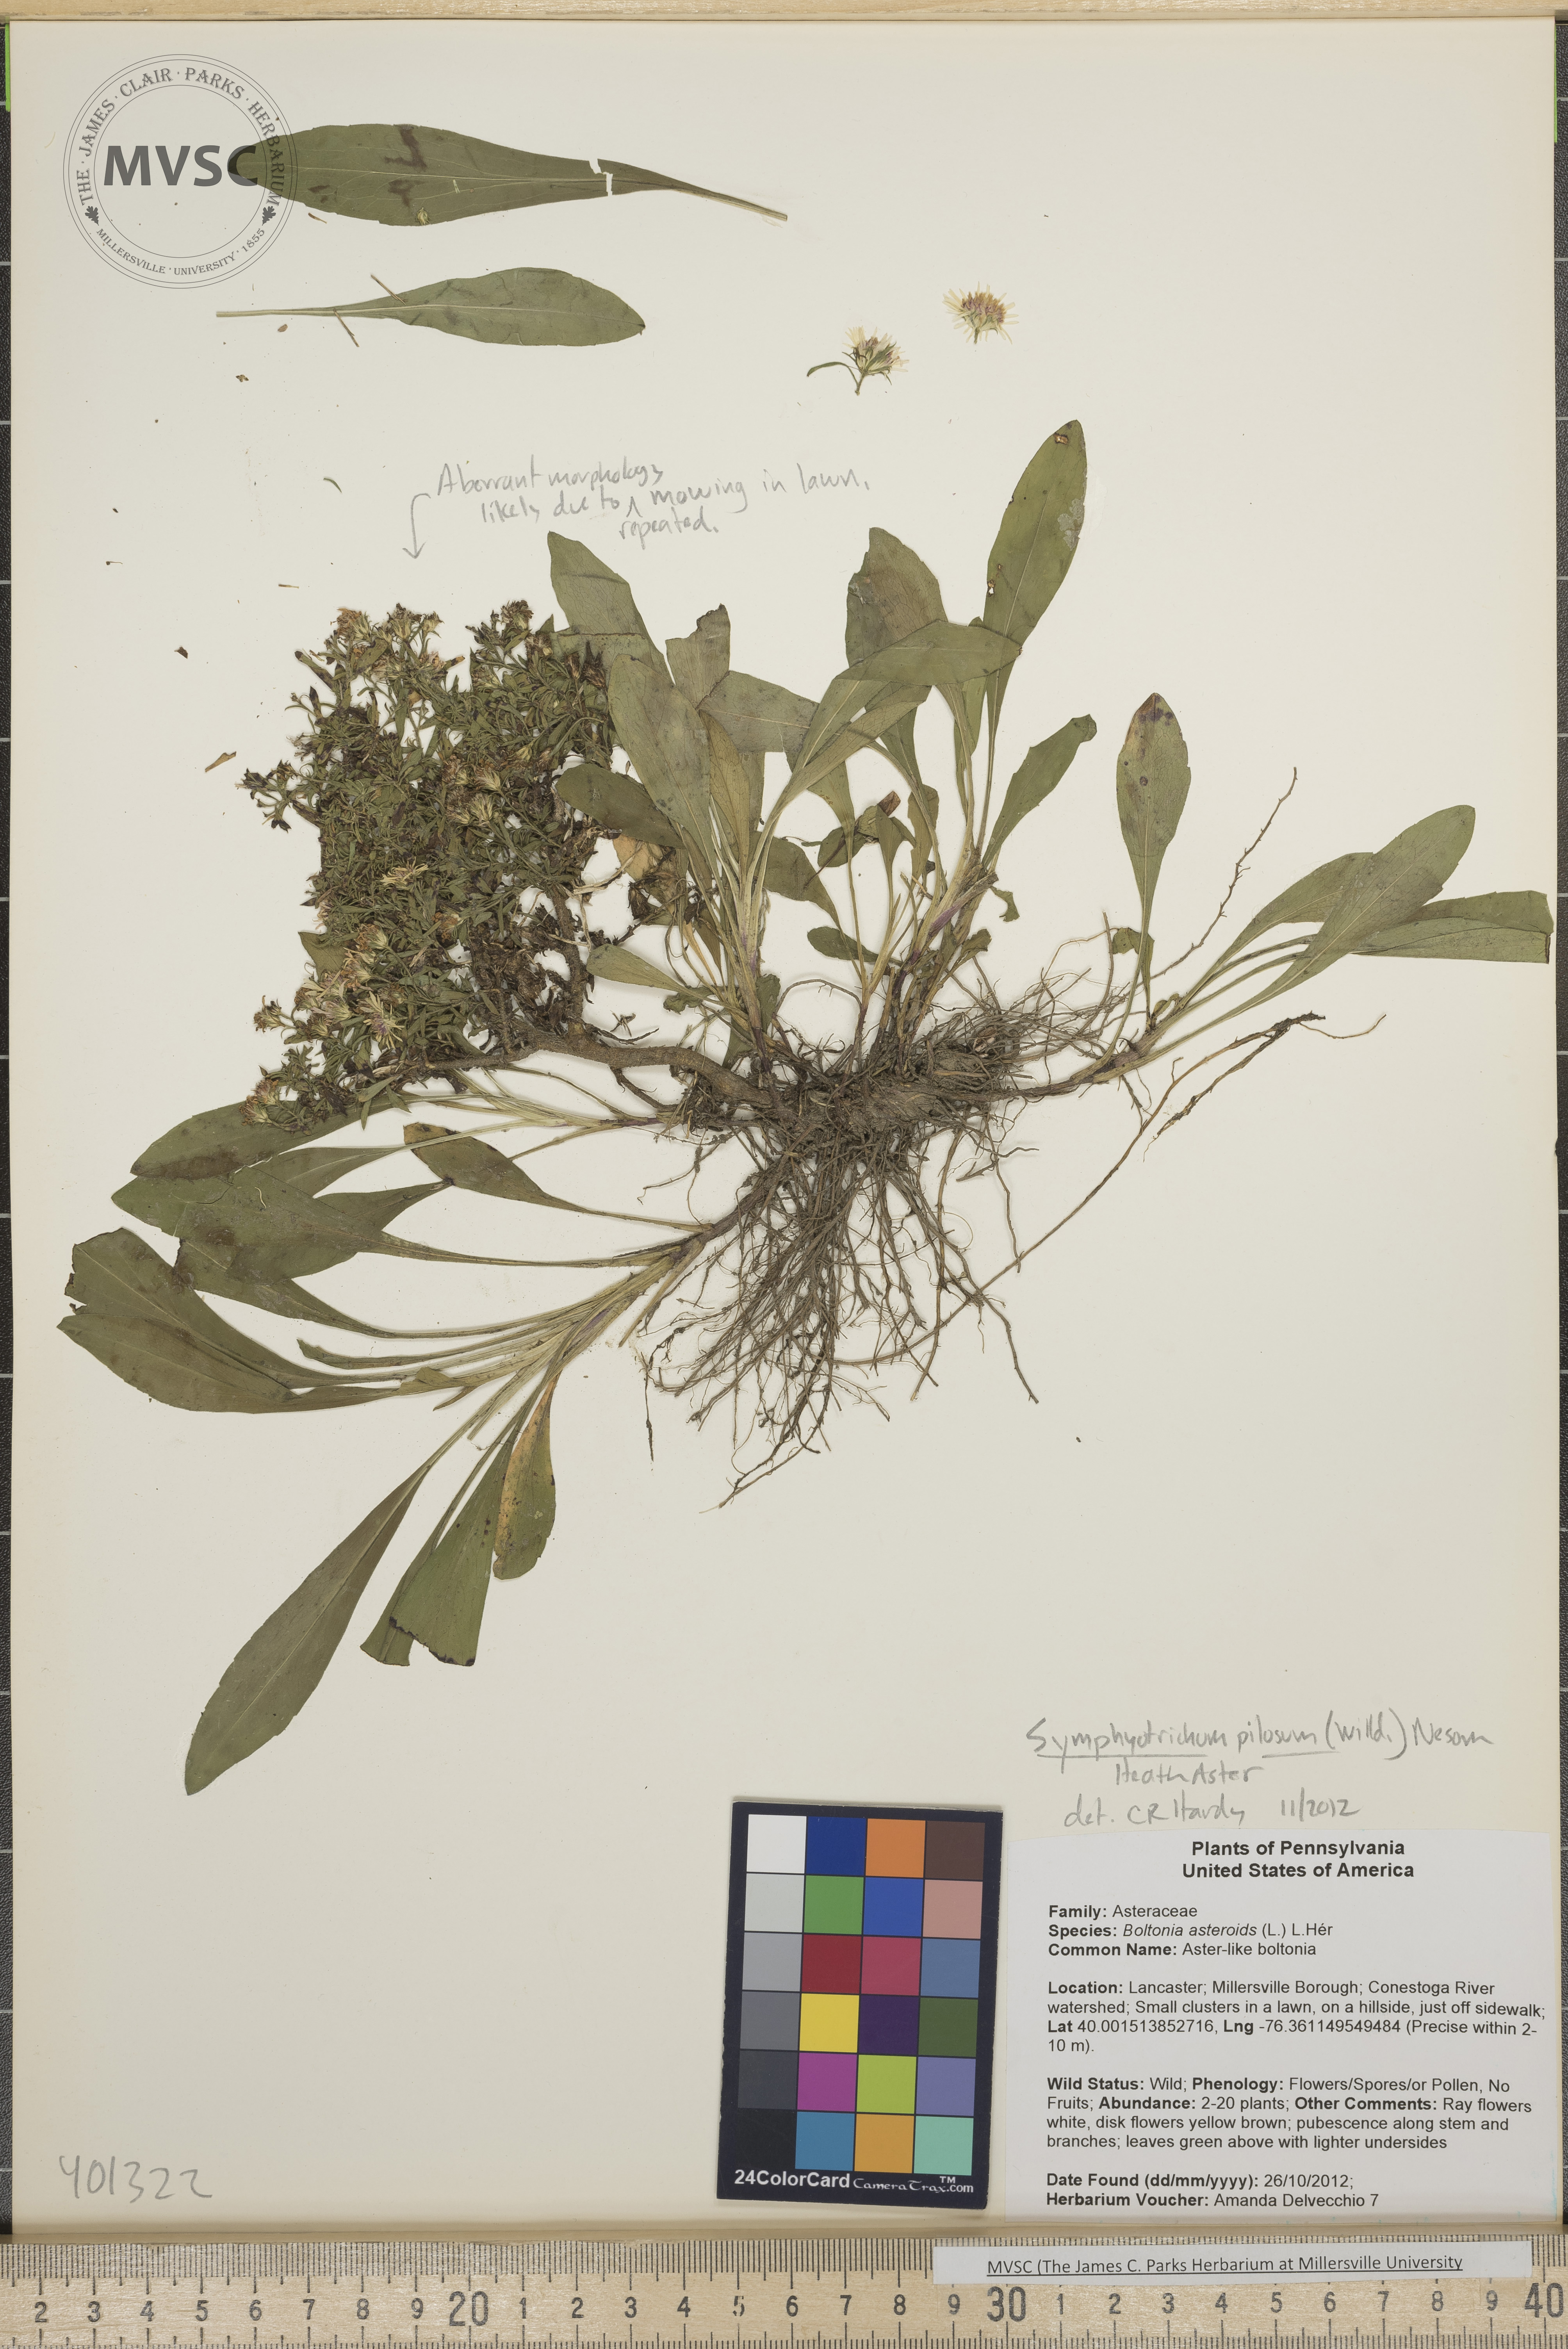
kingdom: Plantae
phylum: Tracheophyta
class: Magnoliopsida
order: Asterales
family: Asteraceae
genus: Symphyotrichum
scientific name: Symphyotrichum pilosum
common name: Heath aster
